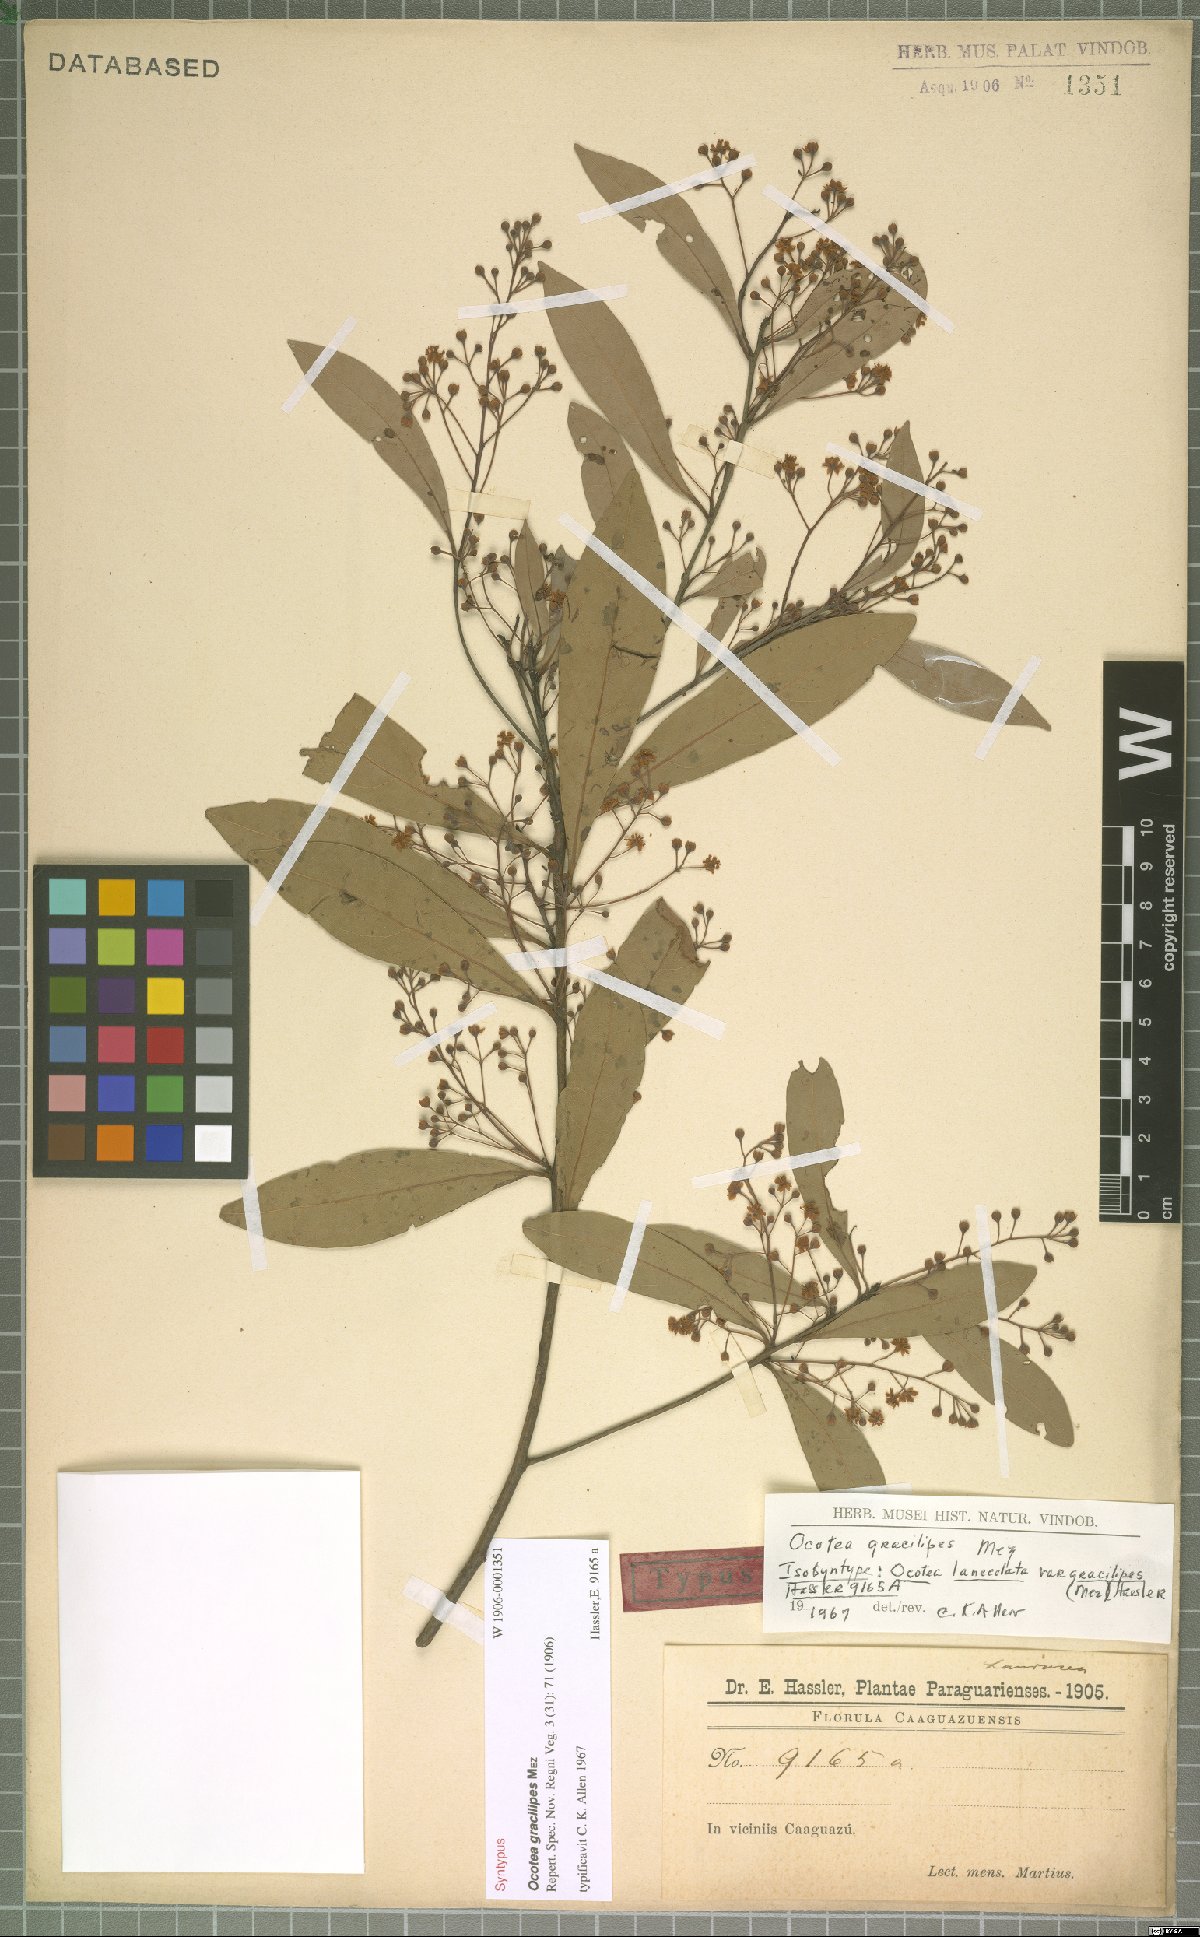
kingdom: Plantae
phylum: Tracheophyta
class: Magnoliopsida
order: Laurales
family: Lauraceae
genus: Ocotea
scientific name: Ocotea lancifolia
